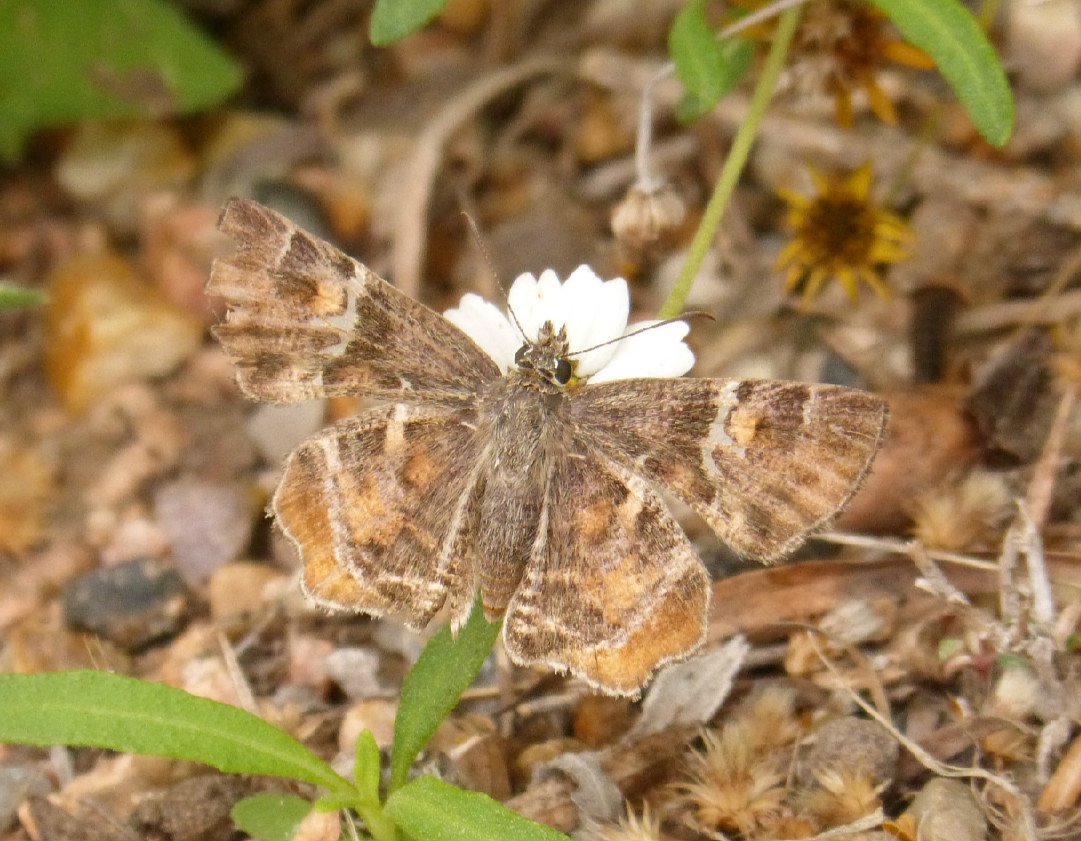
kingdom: Animalia
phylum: Arthropoda
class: Insecta
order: Lepidoptera
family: Hesperiidae
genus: Systasea
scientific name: Systasea pulverulenta
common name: Texas Powdered-Skipper
